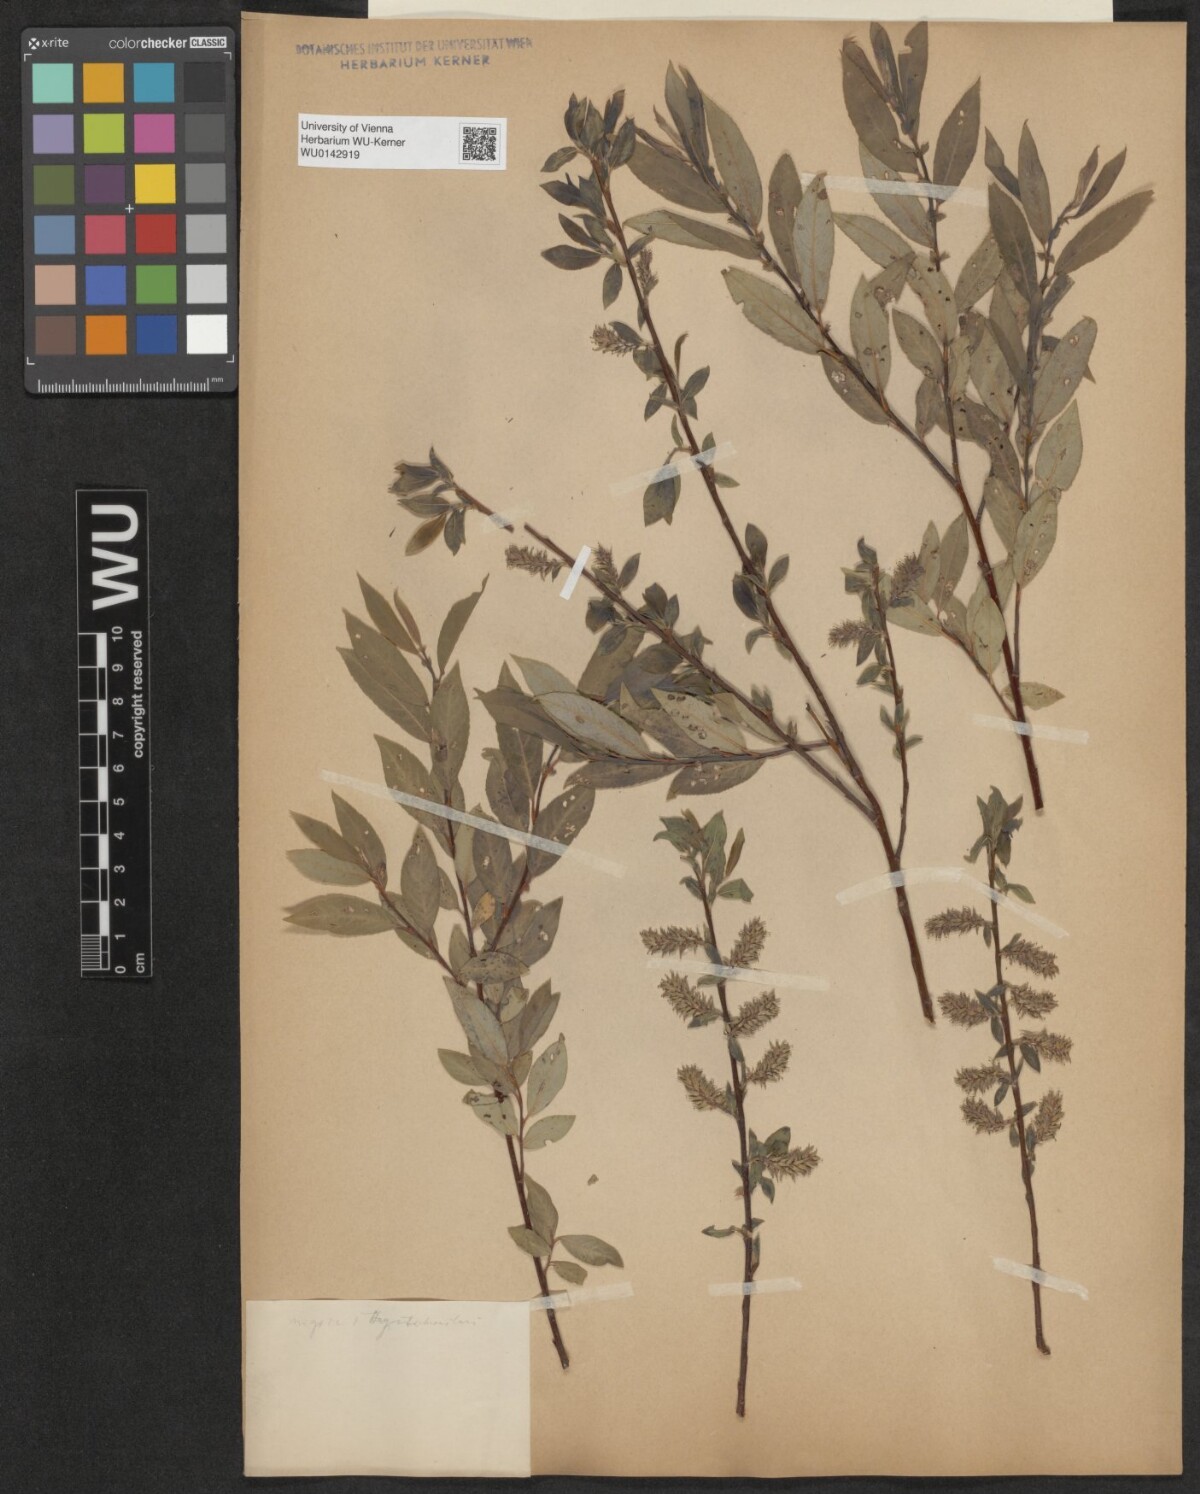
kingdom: Plantae
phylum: Tracheophyta
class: Magnoliopsida
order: Malpighiales
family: Salicaceae
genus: Salix
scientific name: Salix myrsinifolia
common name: Dark-leaved willow
